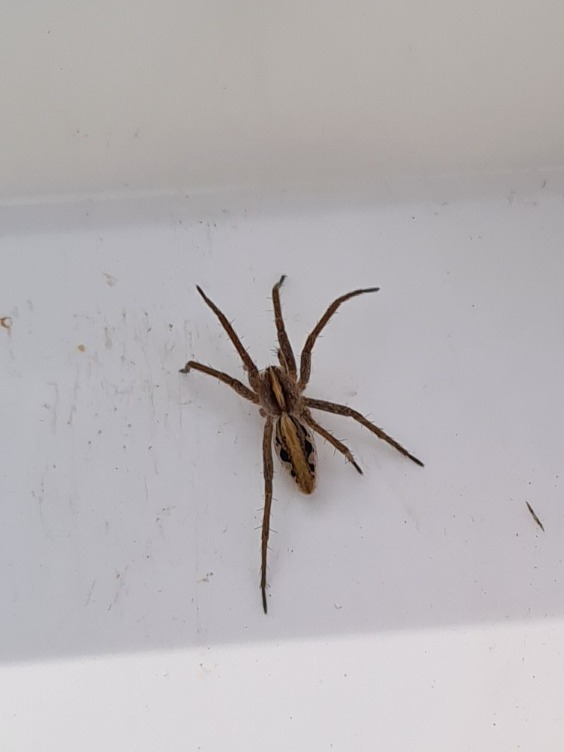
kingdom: Animalia
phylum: Arthropoda
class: Arachnida
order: Araneae
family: Pisauridae
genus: Pisaura
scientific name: Pisaura mirabilis
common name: Almindelig rovedderkop
